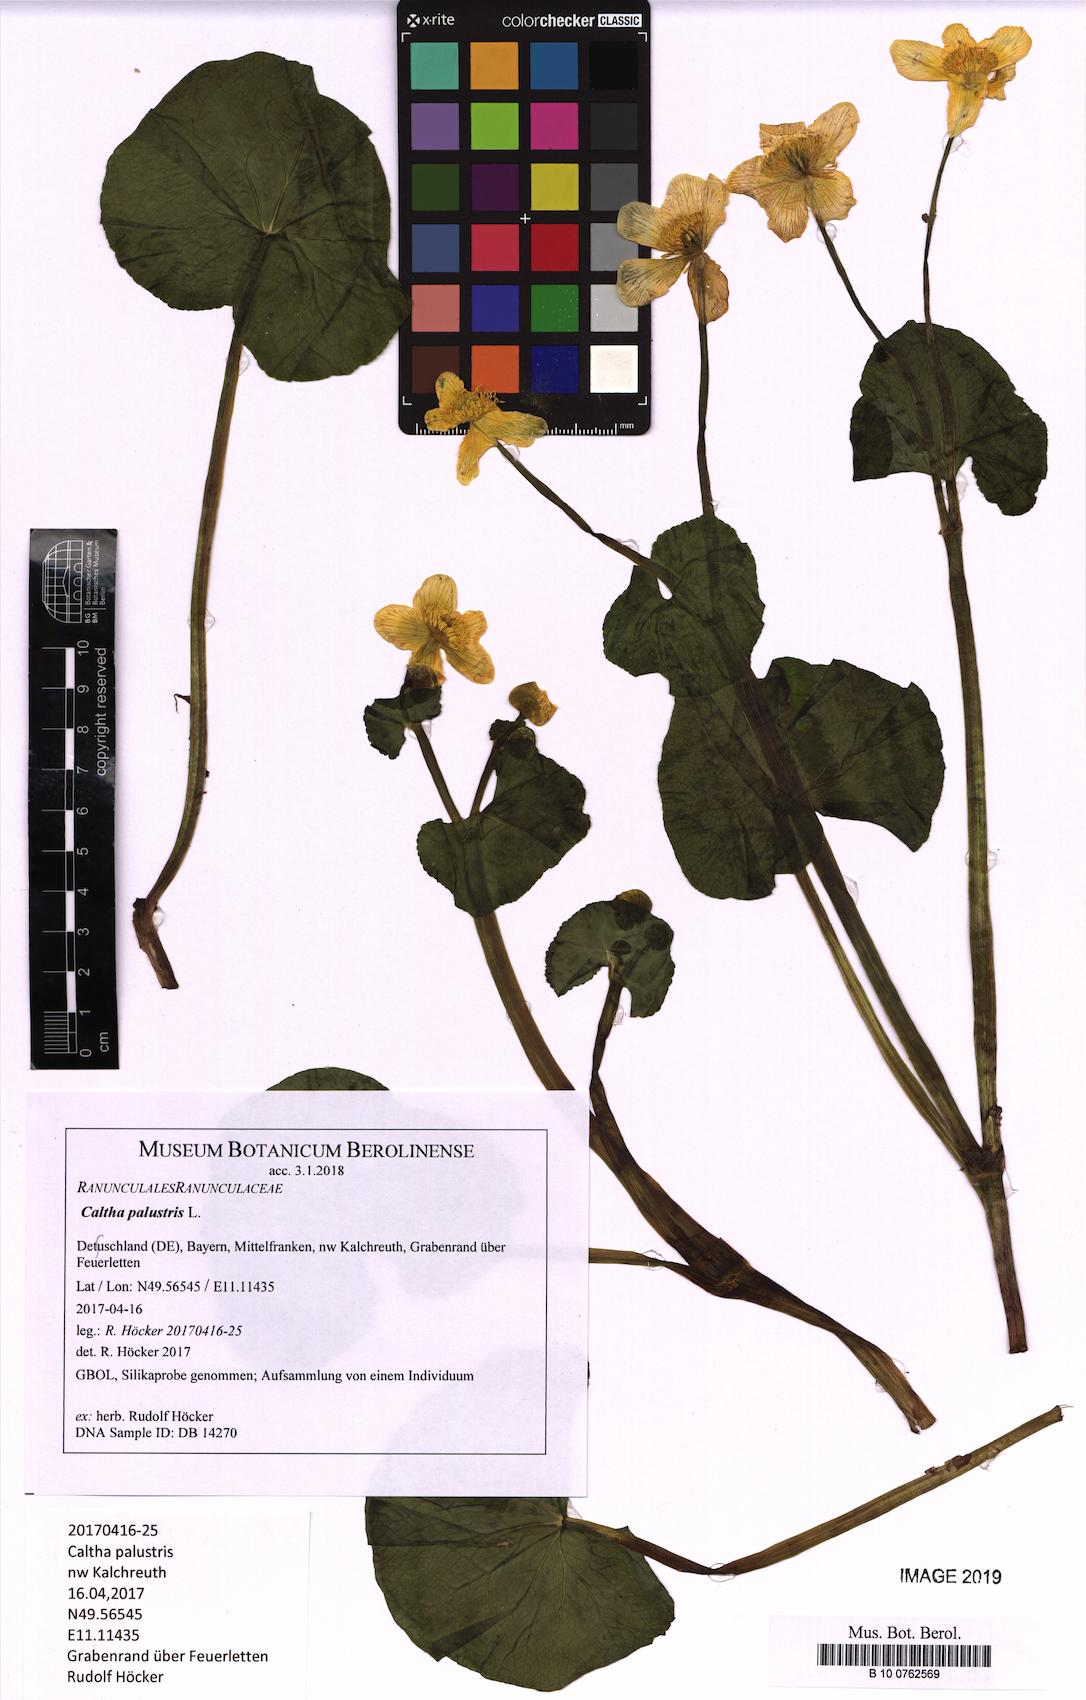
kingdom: Plantae
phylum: Tracheophyta
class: Magnoliopsida
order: Ranunculales
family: Ranunculaceae
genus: Caltha
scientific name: Caltha palustris
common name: Marsh marigold
